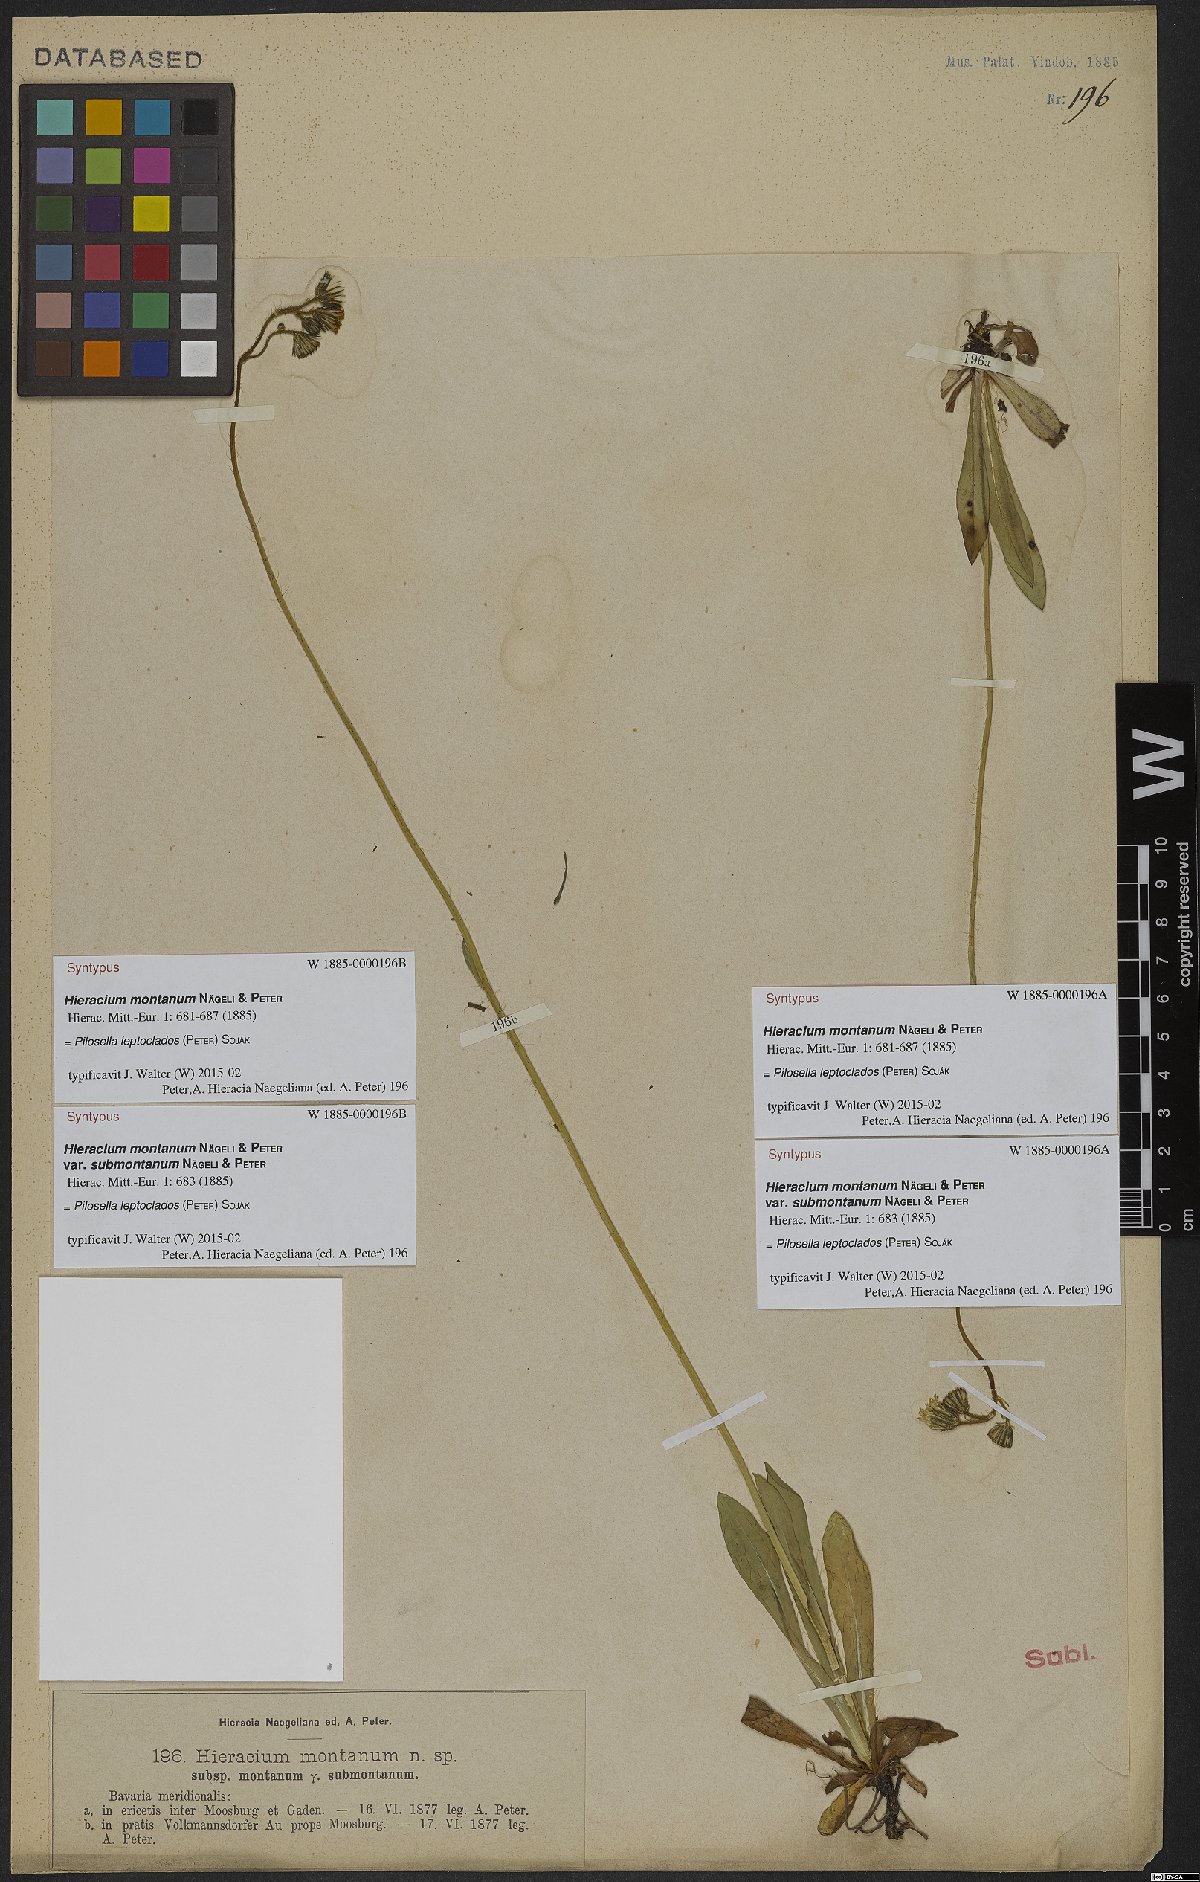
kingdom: Plantae
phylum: Tracheophyta
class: Magnoliopsida
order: Asterales
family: Asteraceae
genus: Pilosella
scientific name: Pilosella leptoclados
